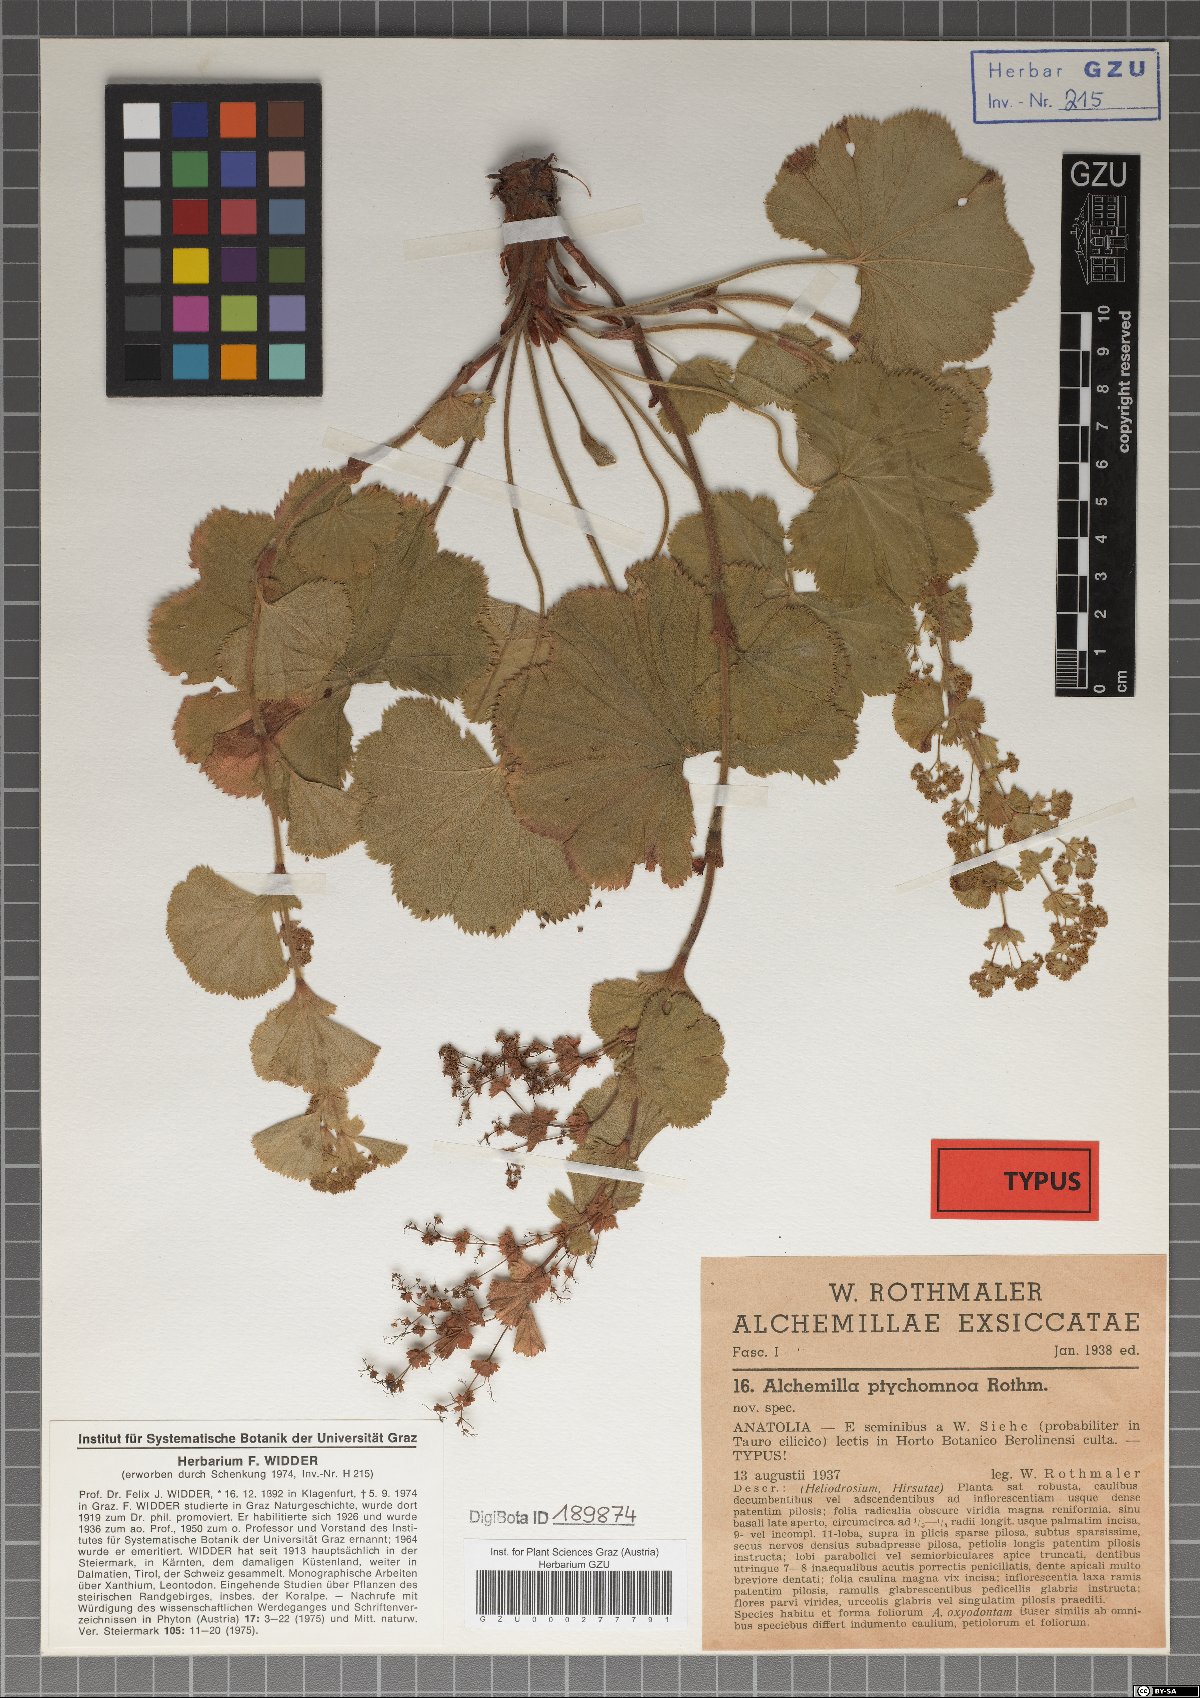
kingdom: Plantae
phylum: Tracheophyta
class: Magnoliopsida
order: Rosales
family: Rosaceae
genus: Alchemilla
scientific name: Alchemilla ptychomnoa
